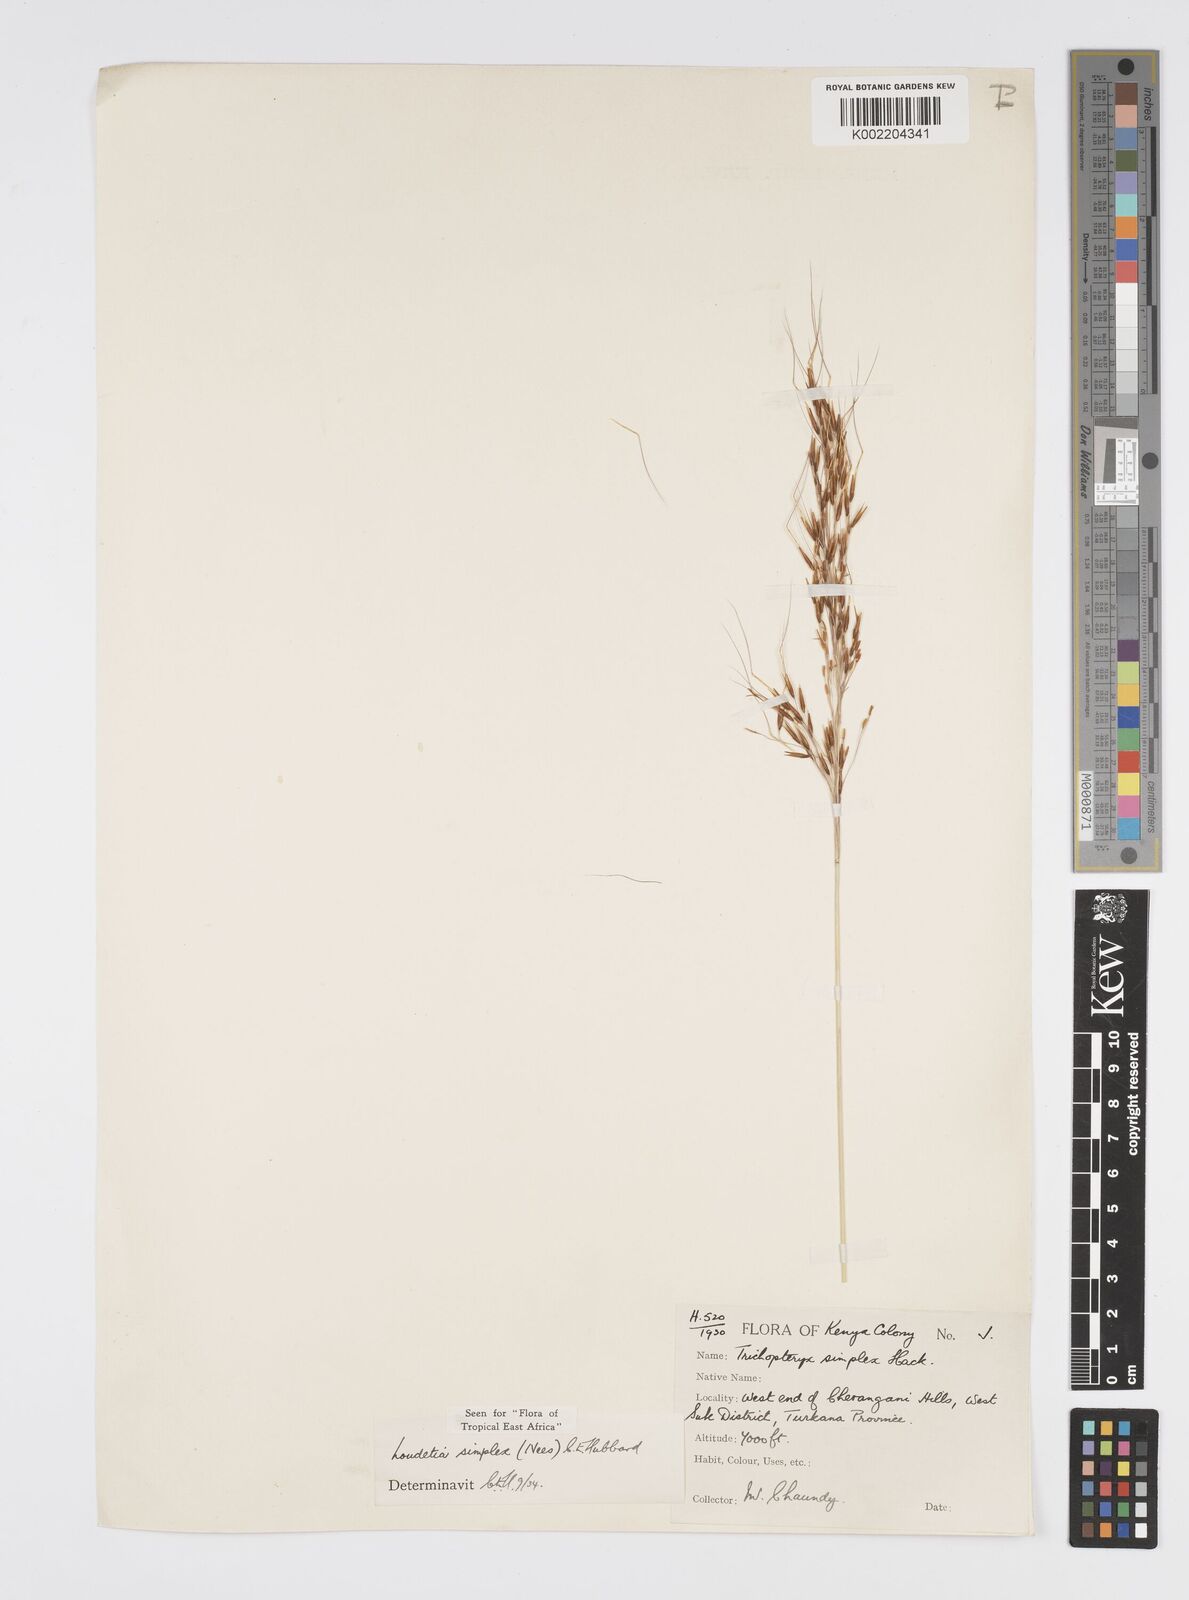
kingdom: Plantae
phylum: Tracheophyta
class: Liliopsida
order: Poales
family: Poaceae
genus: Loudetia
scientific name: Loudetia simplex
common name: Common russet grass
